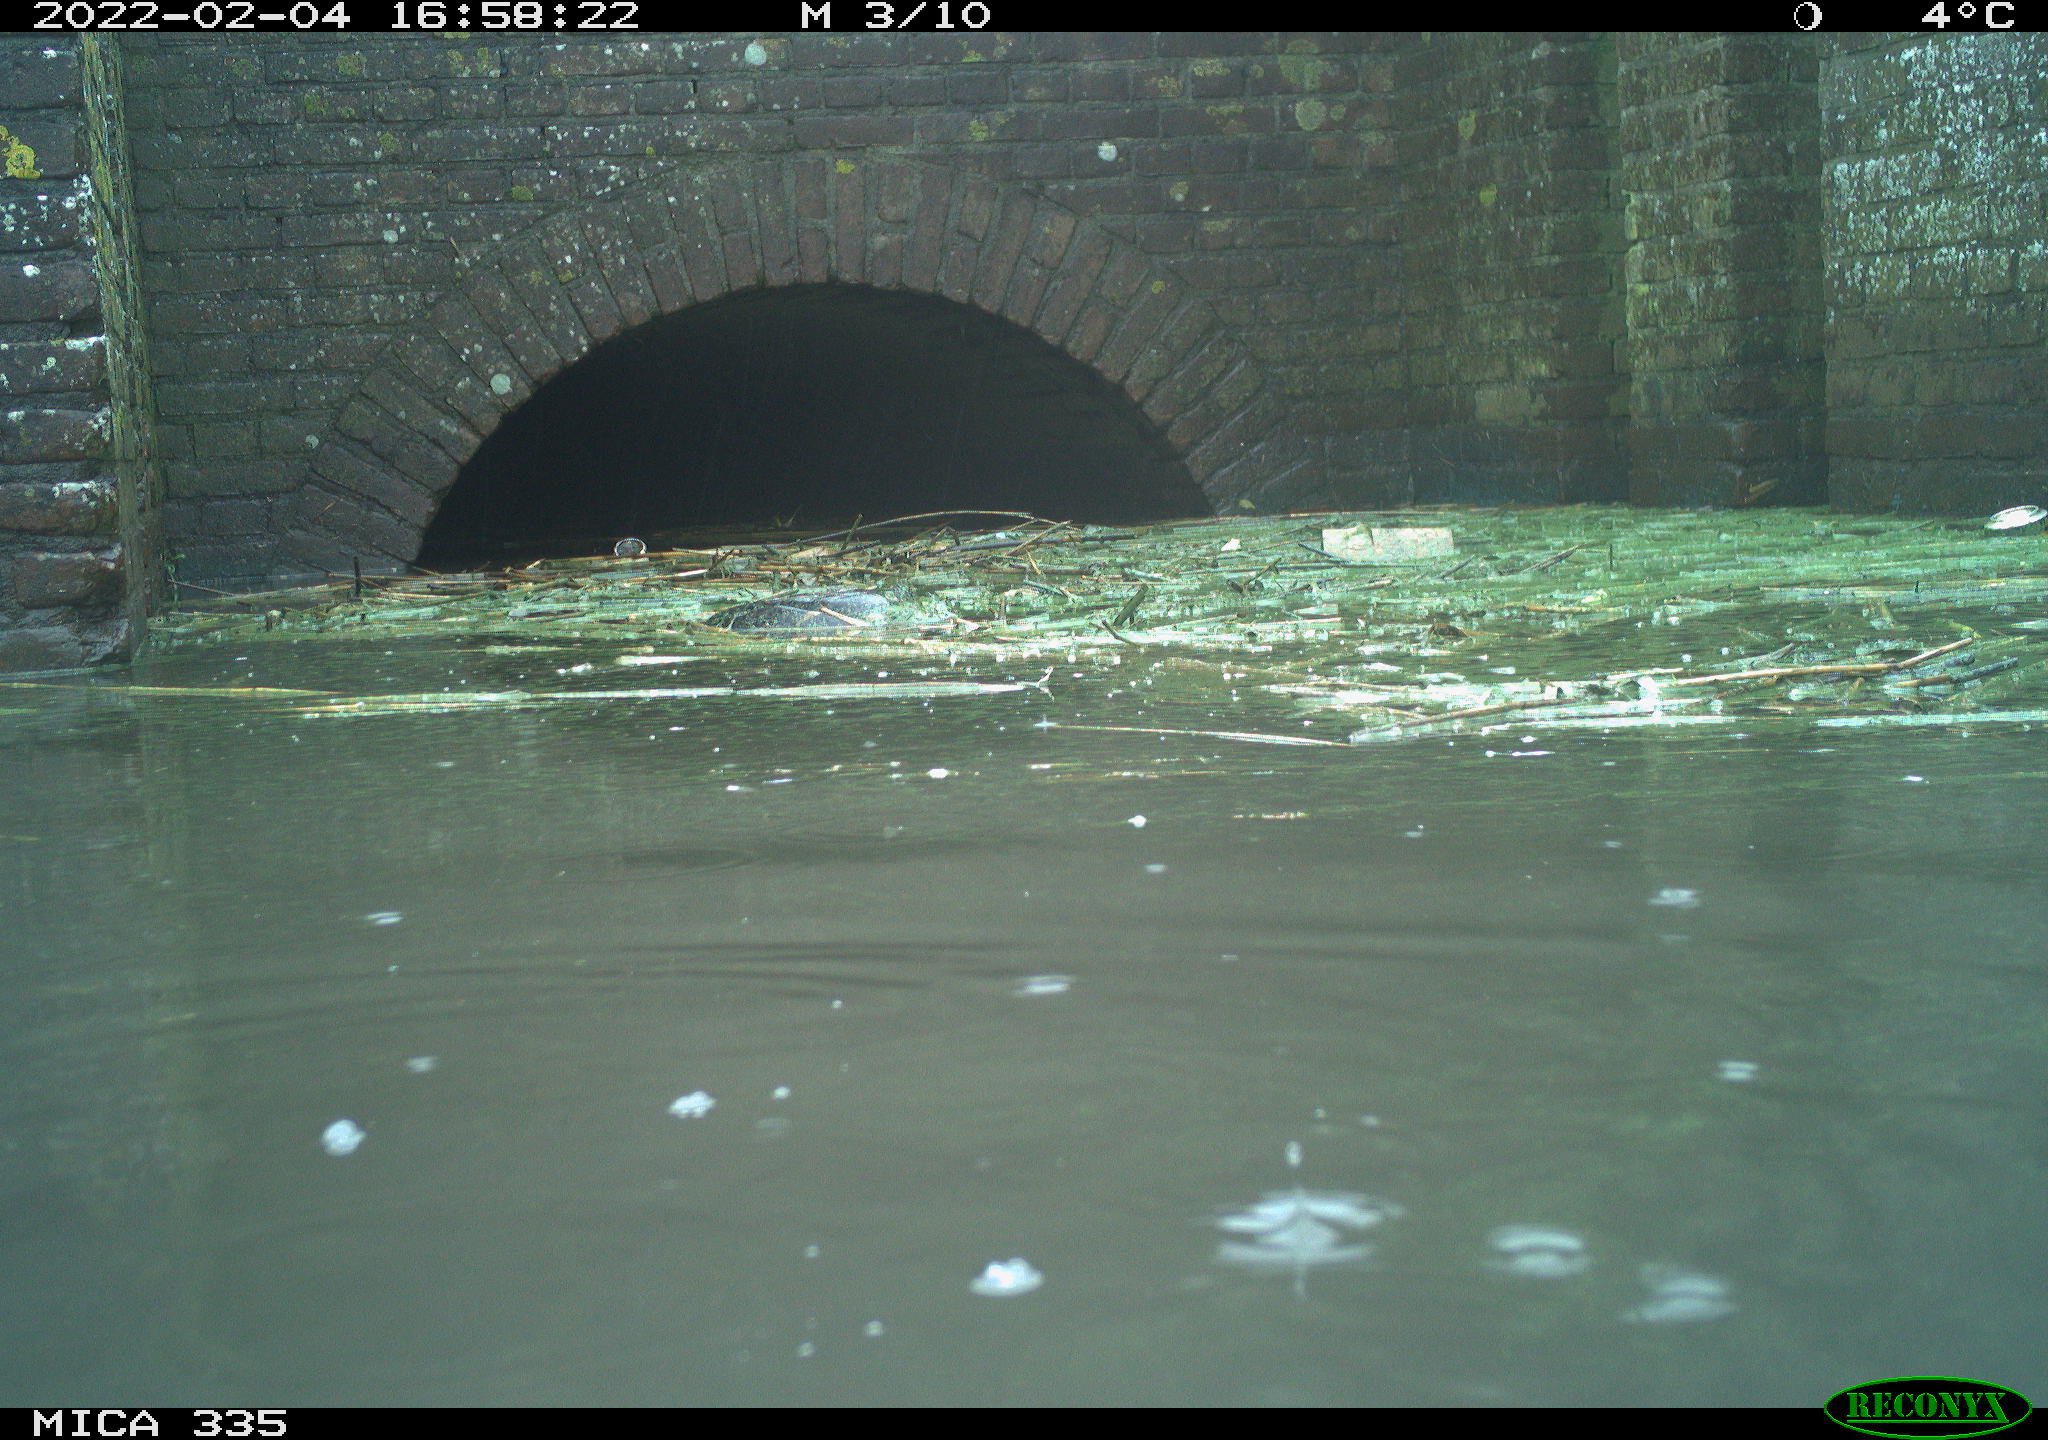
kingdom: Animalia
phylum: Chordata
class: Aves
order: Podicipediformes
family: Podicipedidae
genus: Podiceps
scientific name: Podiceps cristatus
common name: Great crested grebe
